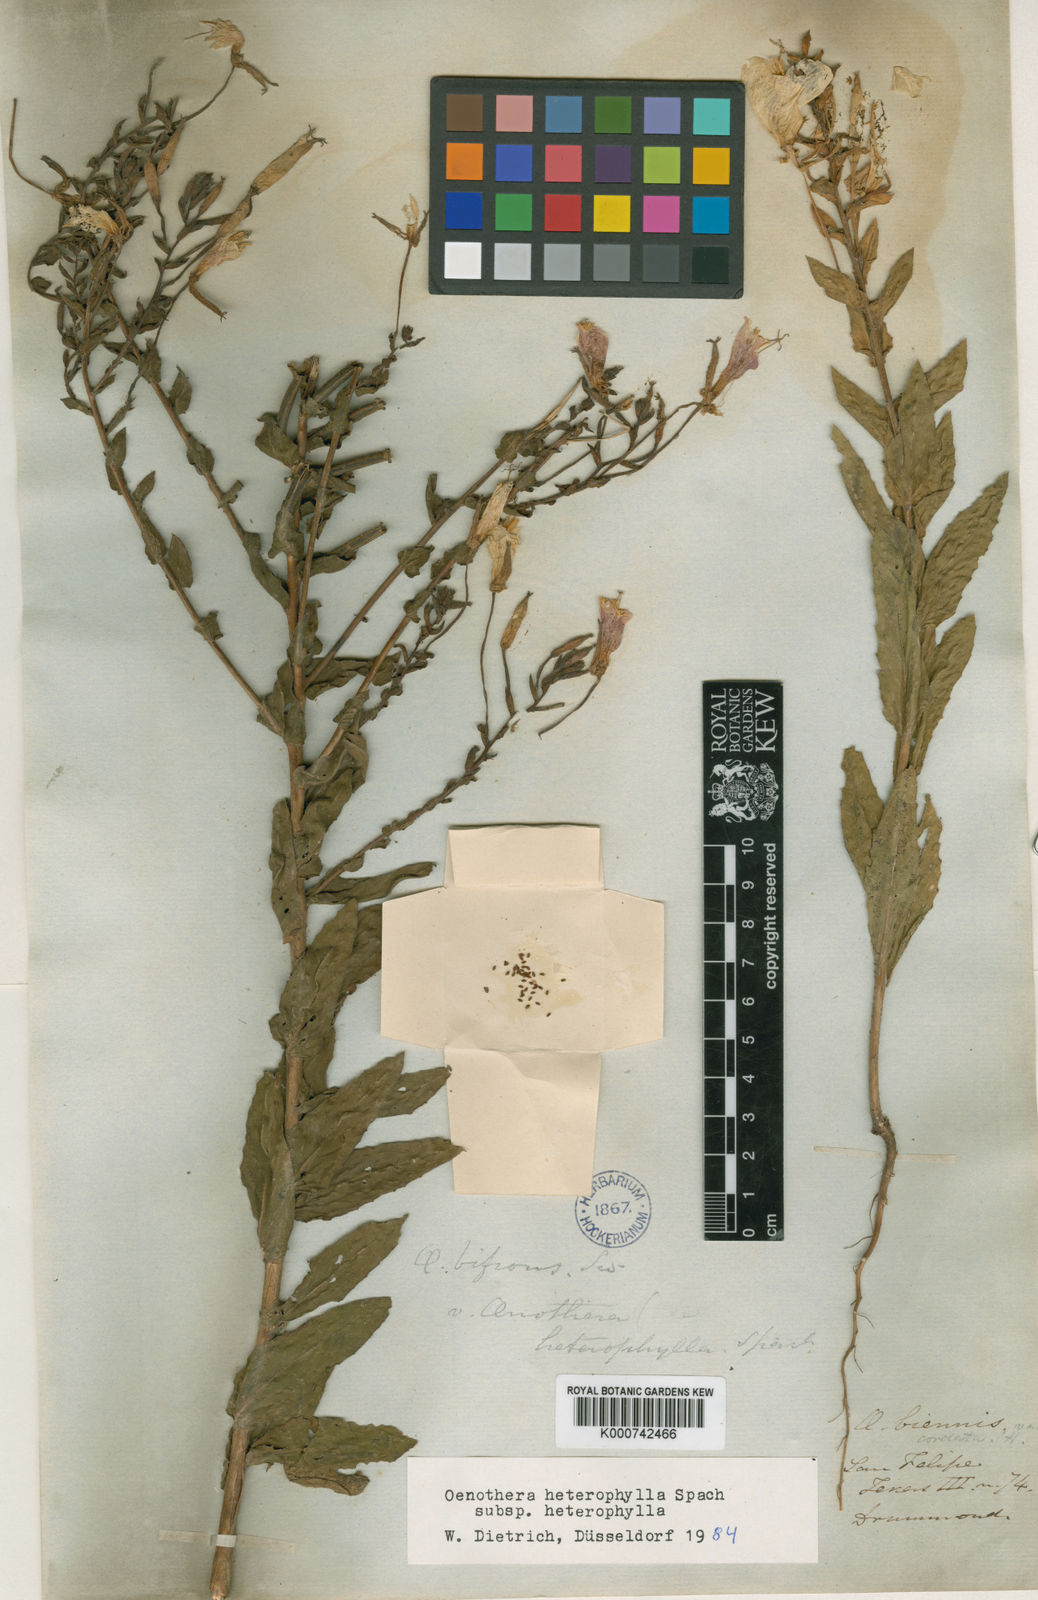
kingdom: Plantae
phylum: Tracheophyta
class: Magnoliopsida
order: Myrtales
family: Onagraceae
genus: Oenothera
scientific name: Oenothera heterophylla
